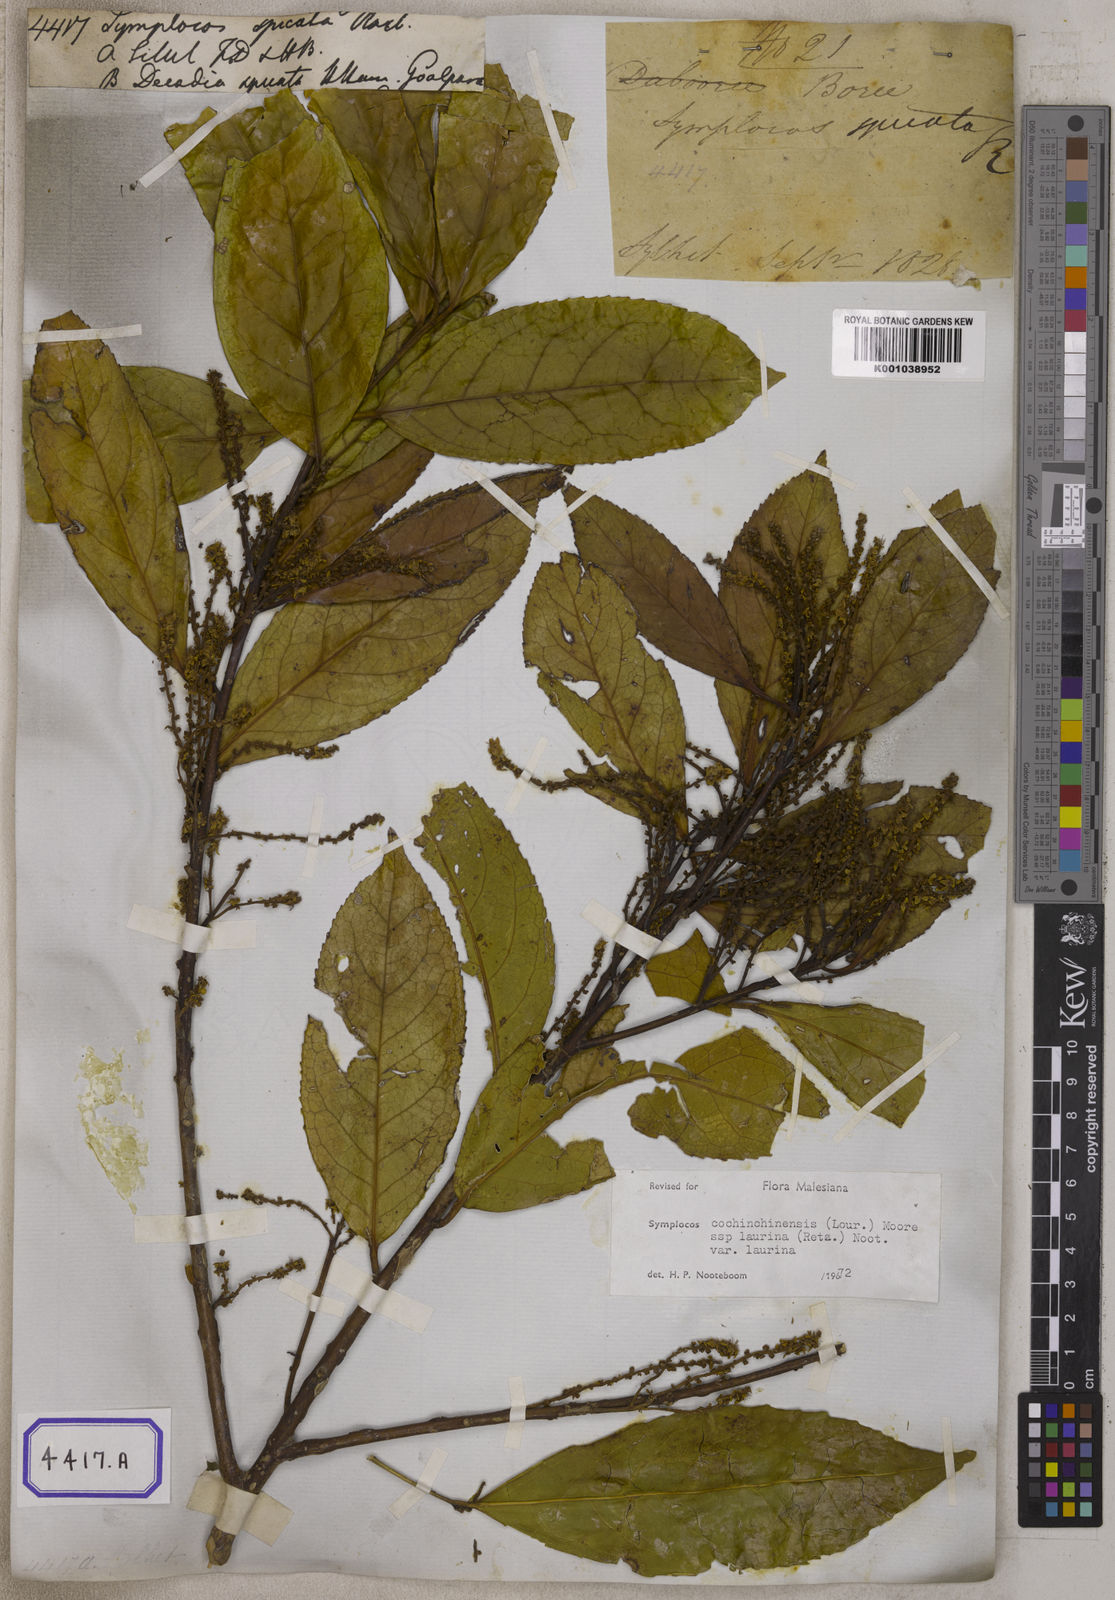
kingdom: Plantae
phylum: Tracheophyta
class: Magnoliopsida
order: Ericales
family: Symplocaceae
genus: Symplocos
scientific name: Symplocos acuminata
